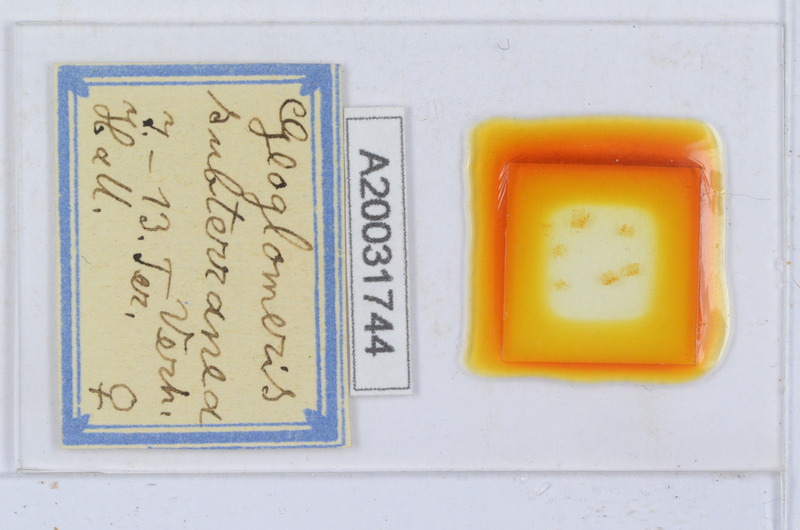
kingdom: Animalia
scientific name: Animalia
